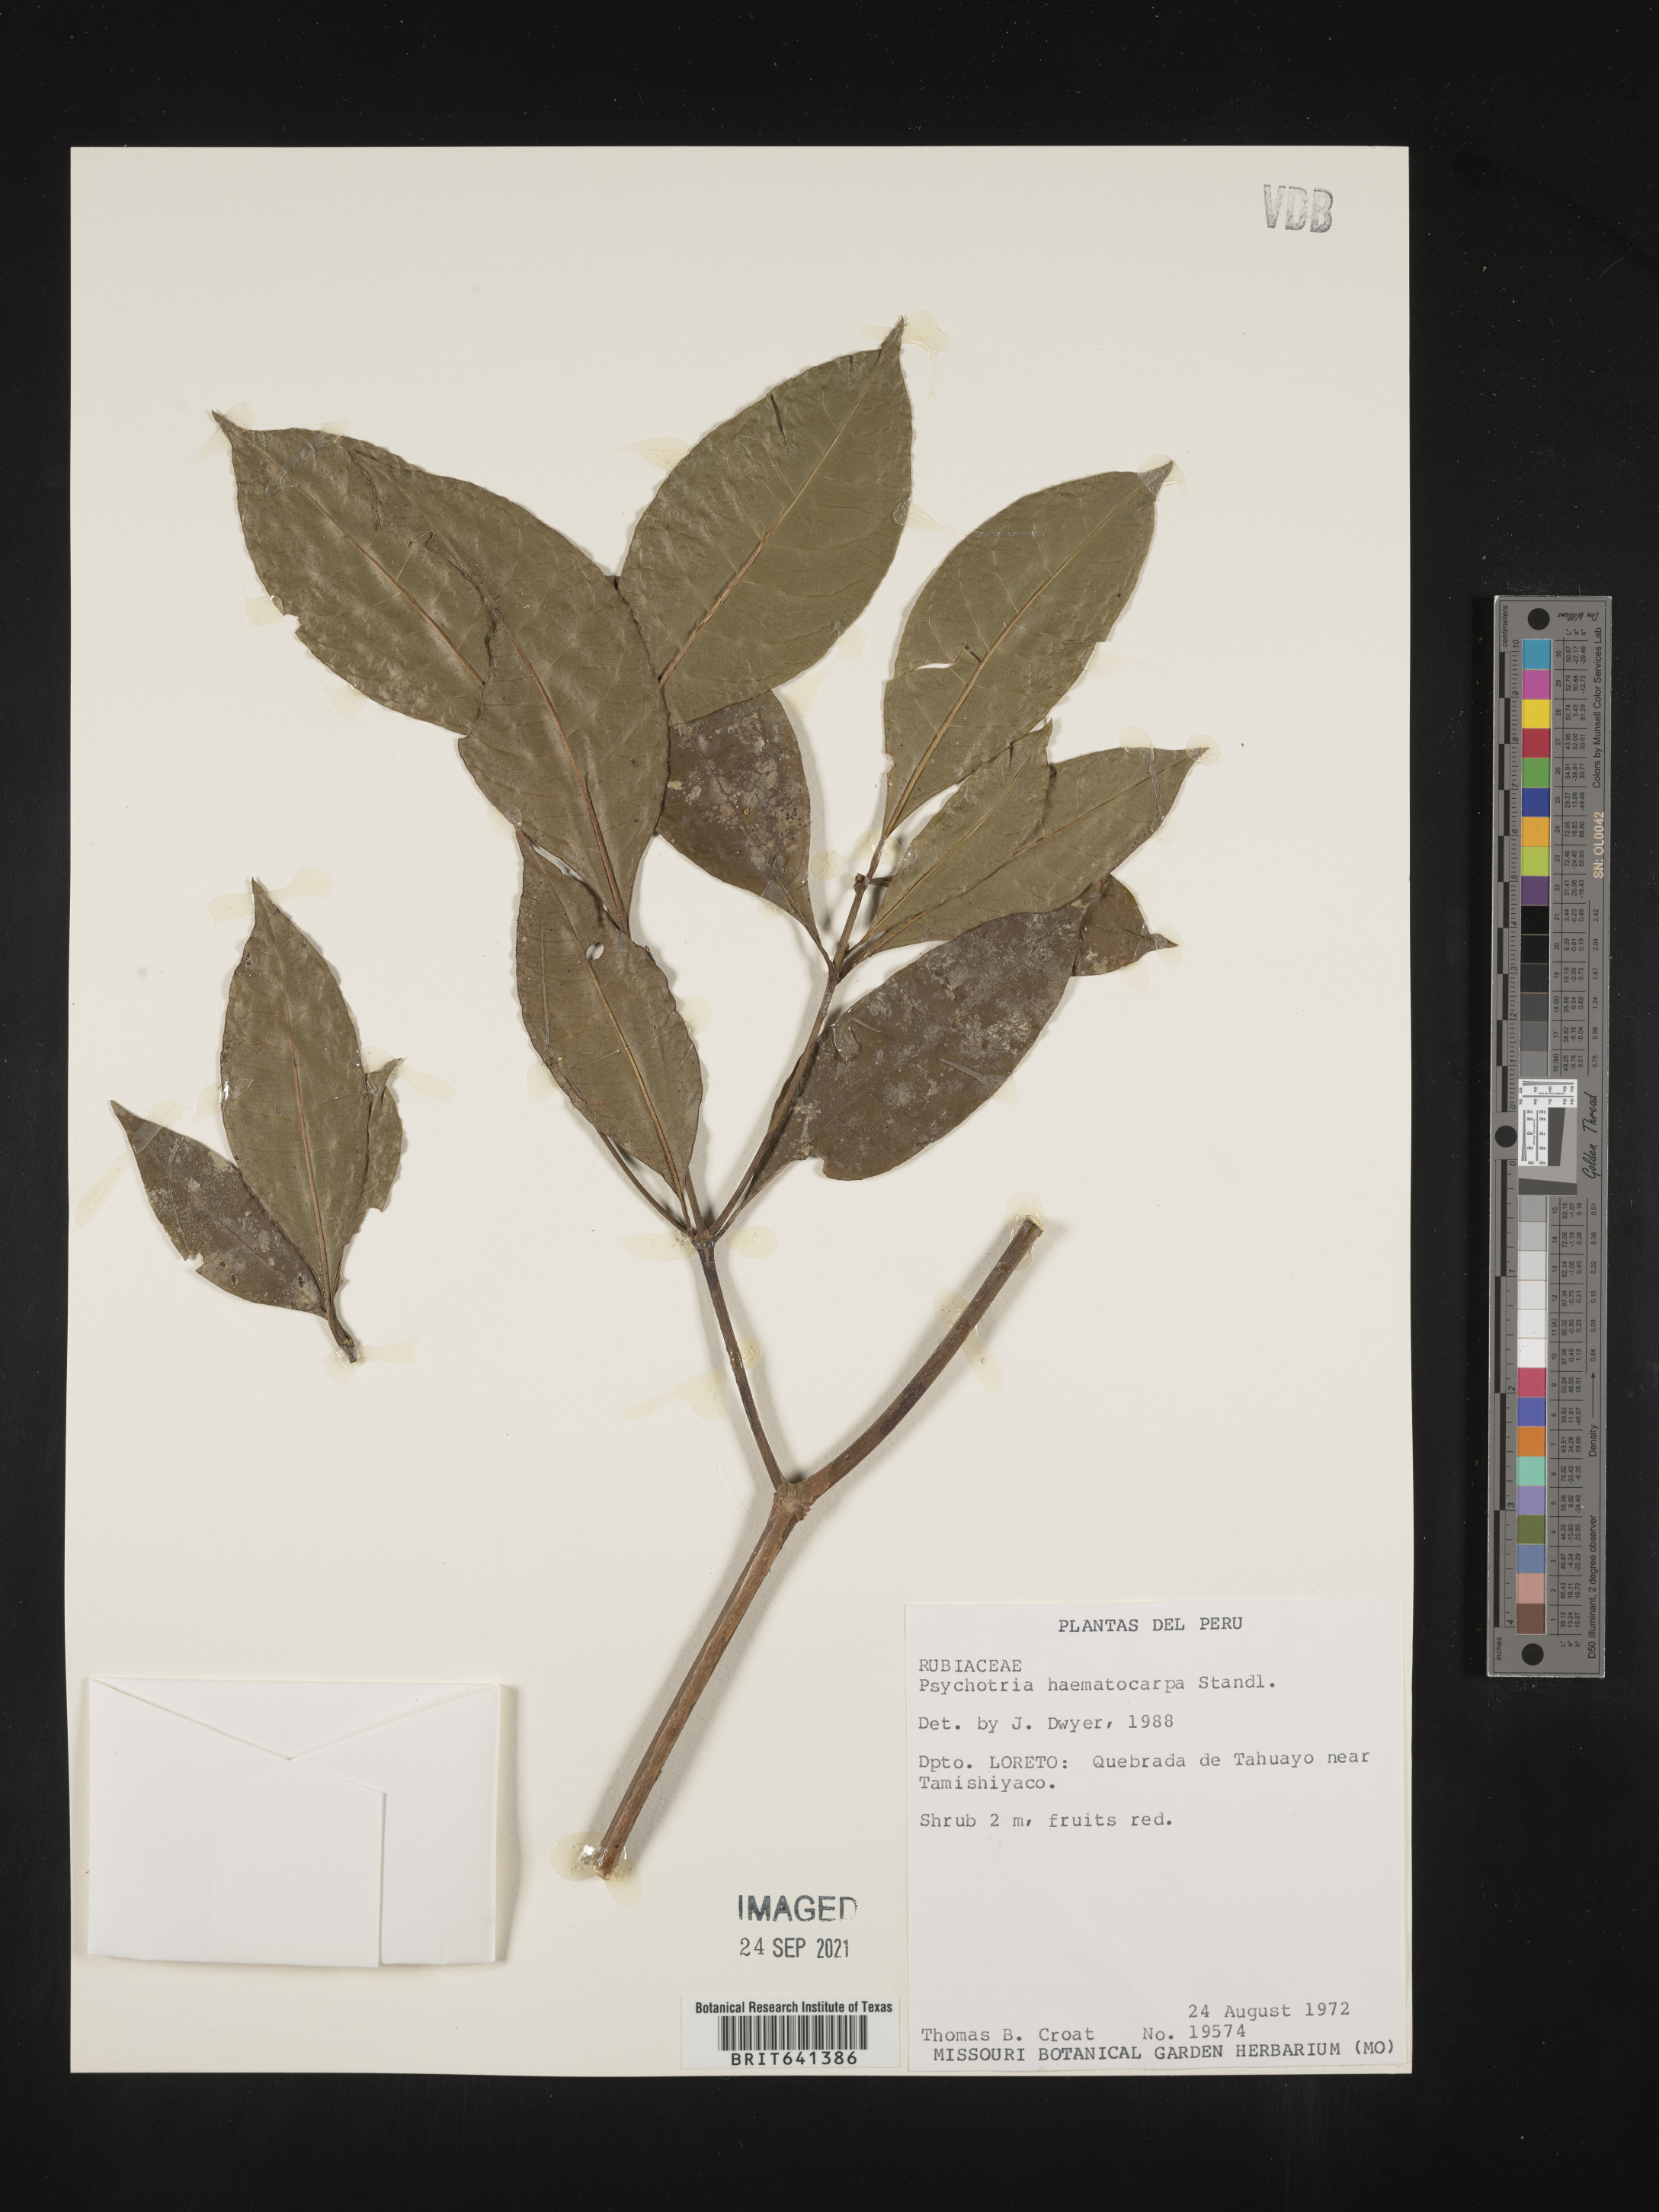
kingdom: Plantae
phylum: Tracheophyta
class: Magnoliopsida
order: Gentianales
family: Rubiaceae
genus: Psychotria
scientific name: Psychotria
